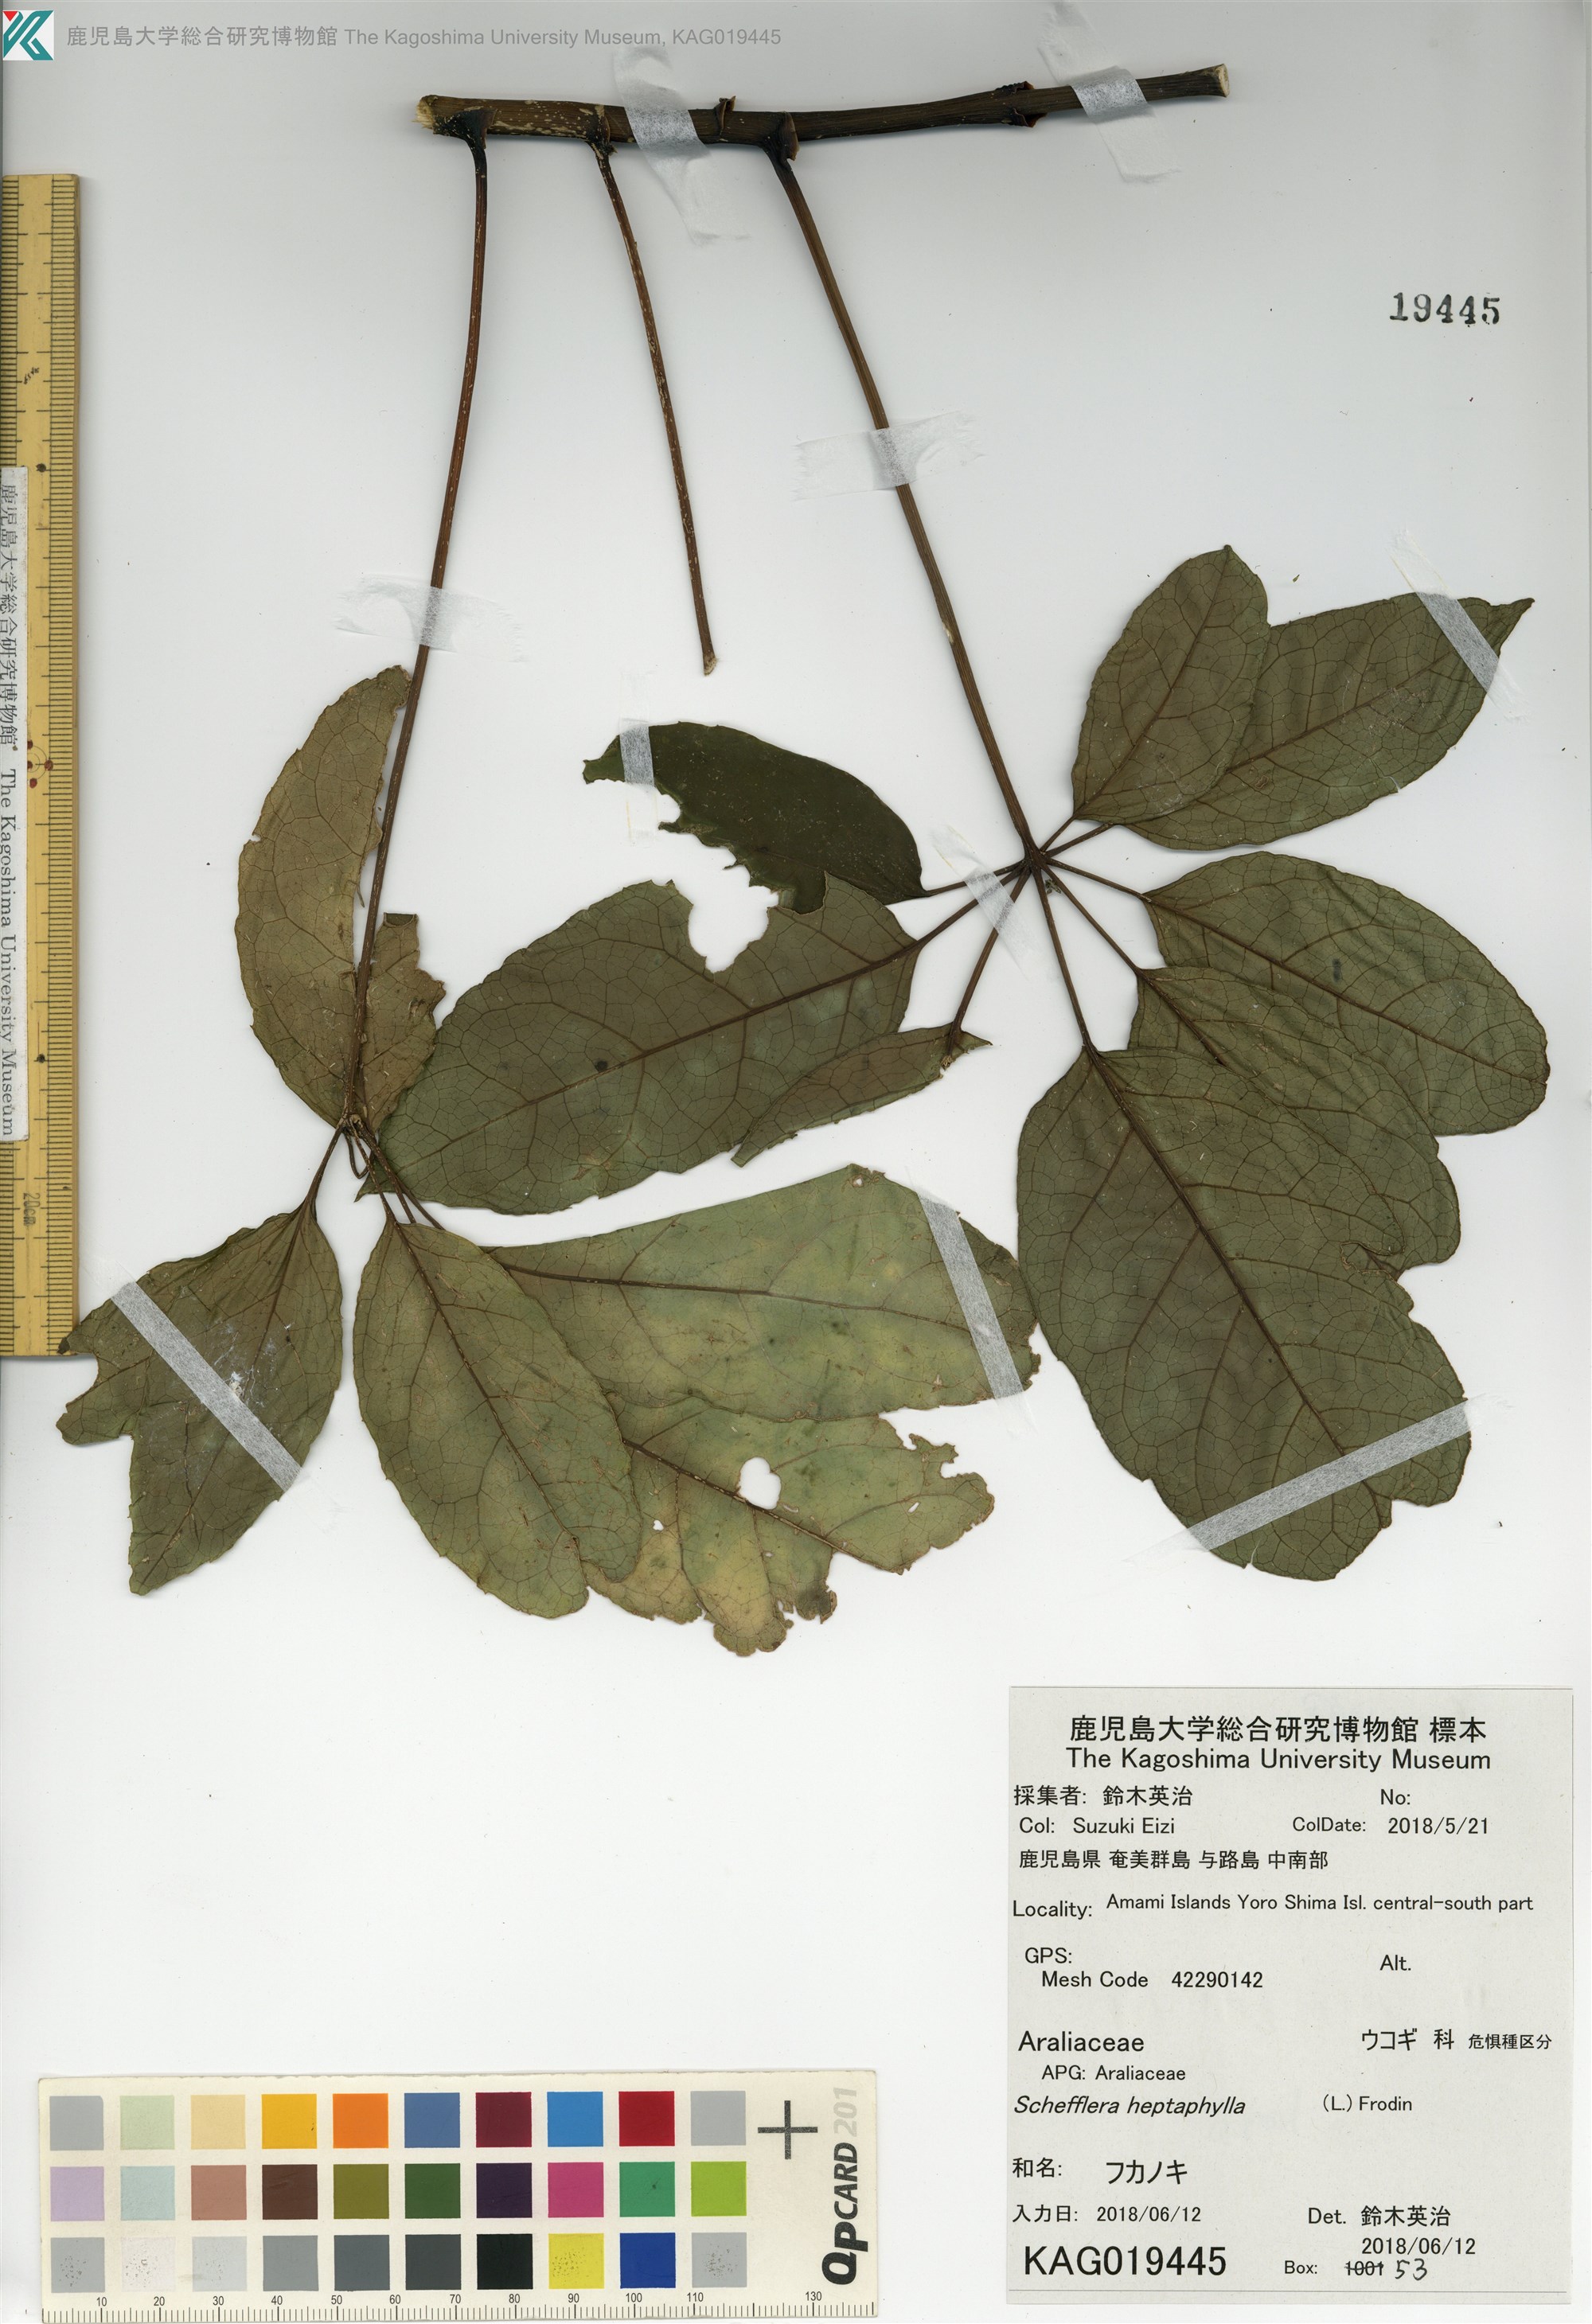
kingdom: Plantae
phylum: Tracheophyta
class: Magnoliopsida
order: Apiales
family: Araliaceae
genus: Heptapleurum
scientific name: Heptapleurum heptaphyllum
